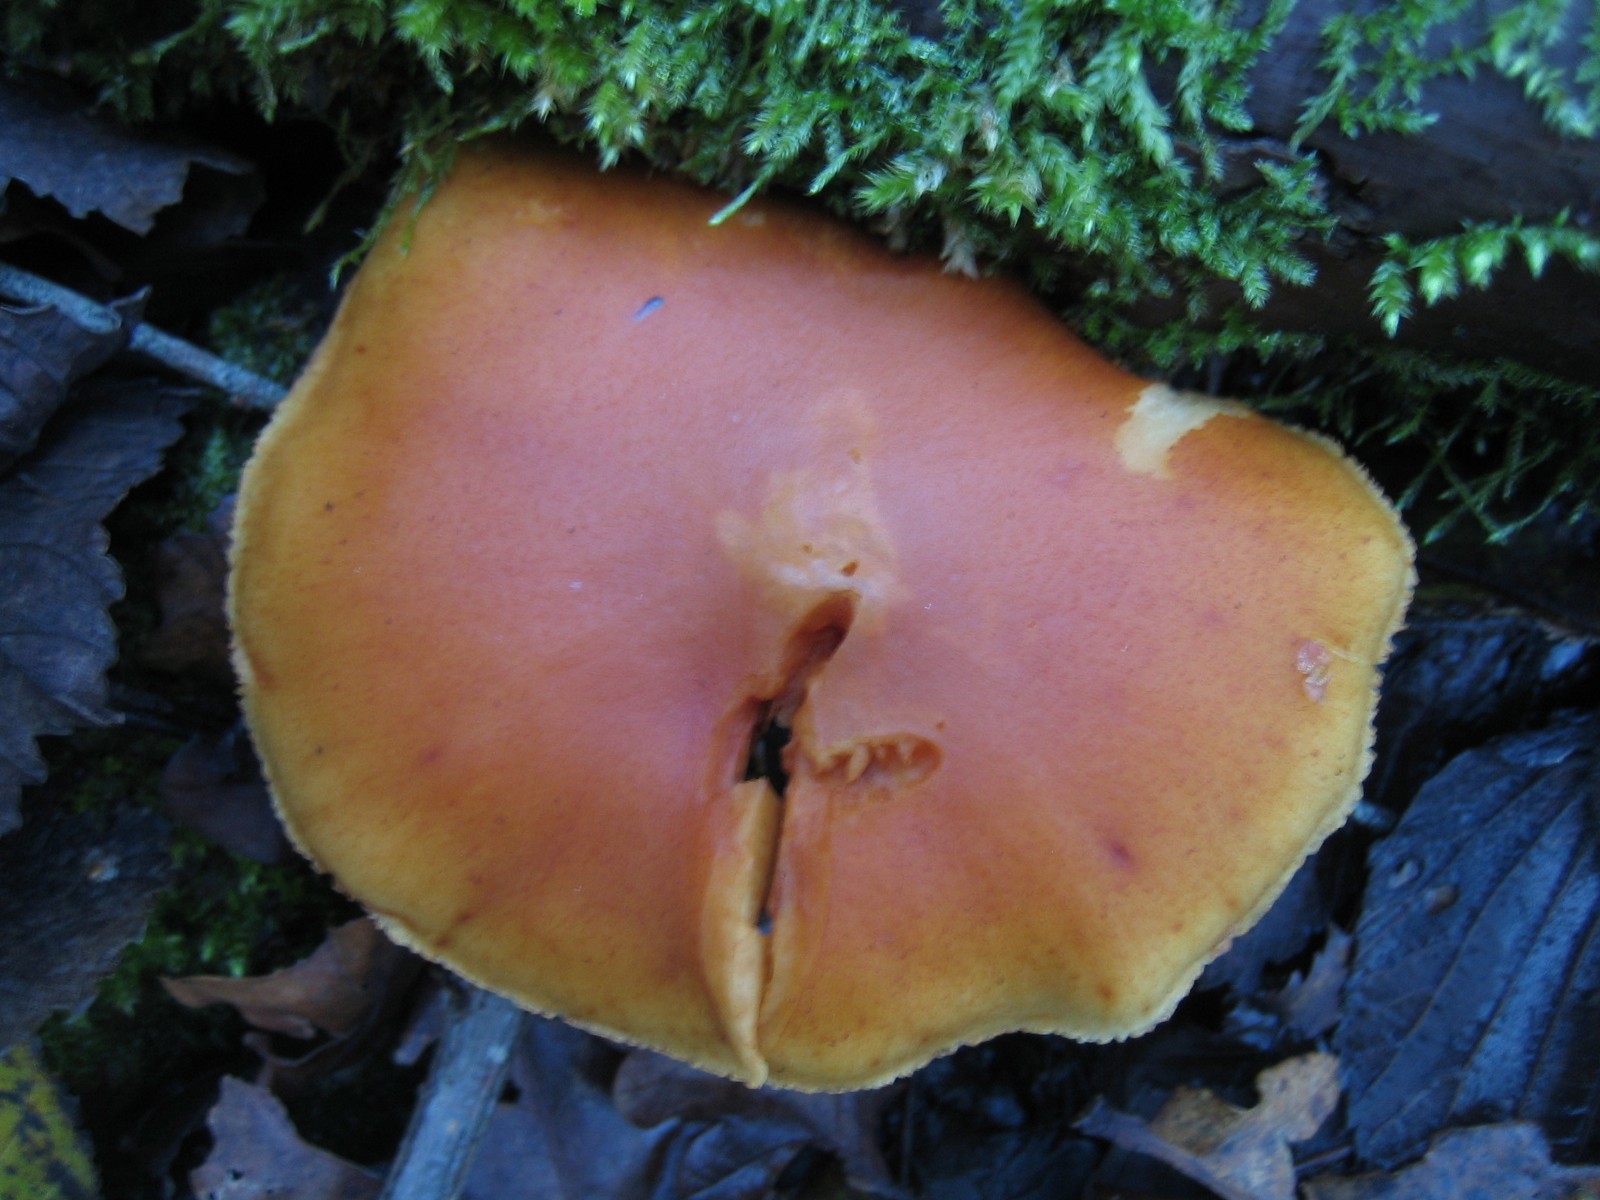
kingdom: Fungi
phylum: Basidiomycota
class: Agaricomycetes
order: Agaricales
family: Hymenogastraceae
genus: Gymnopilus
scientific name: Gymnopilus penetrans
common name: plettet flammehat
